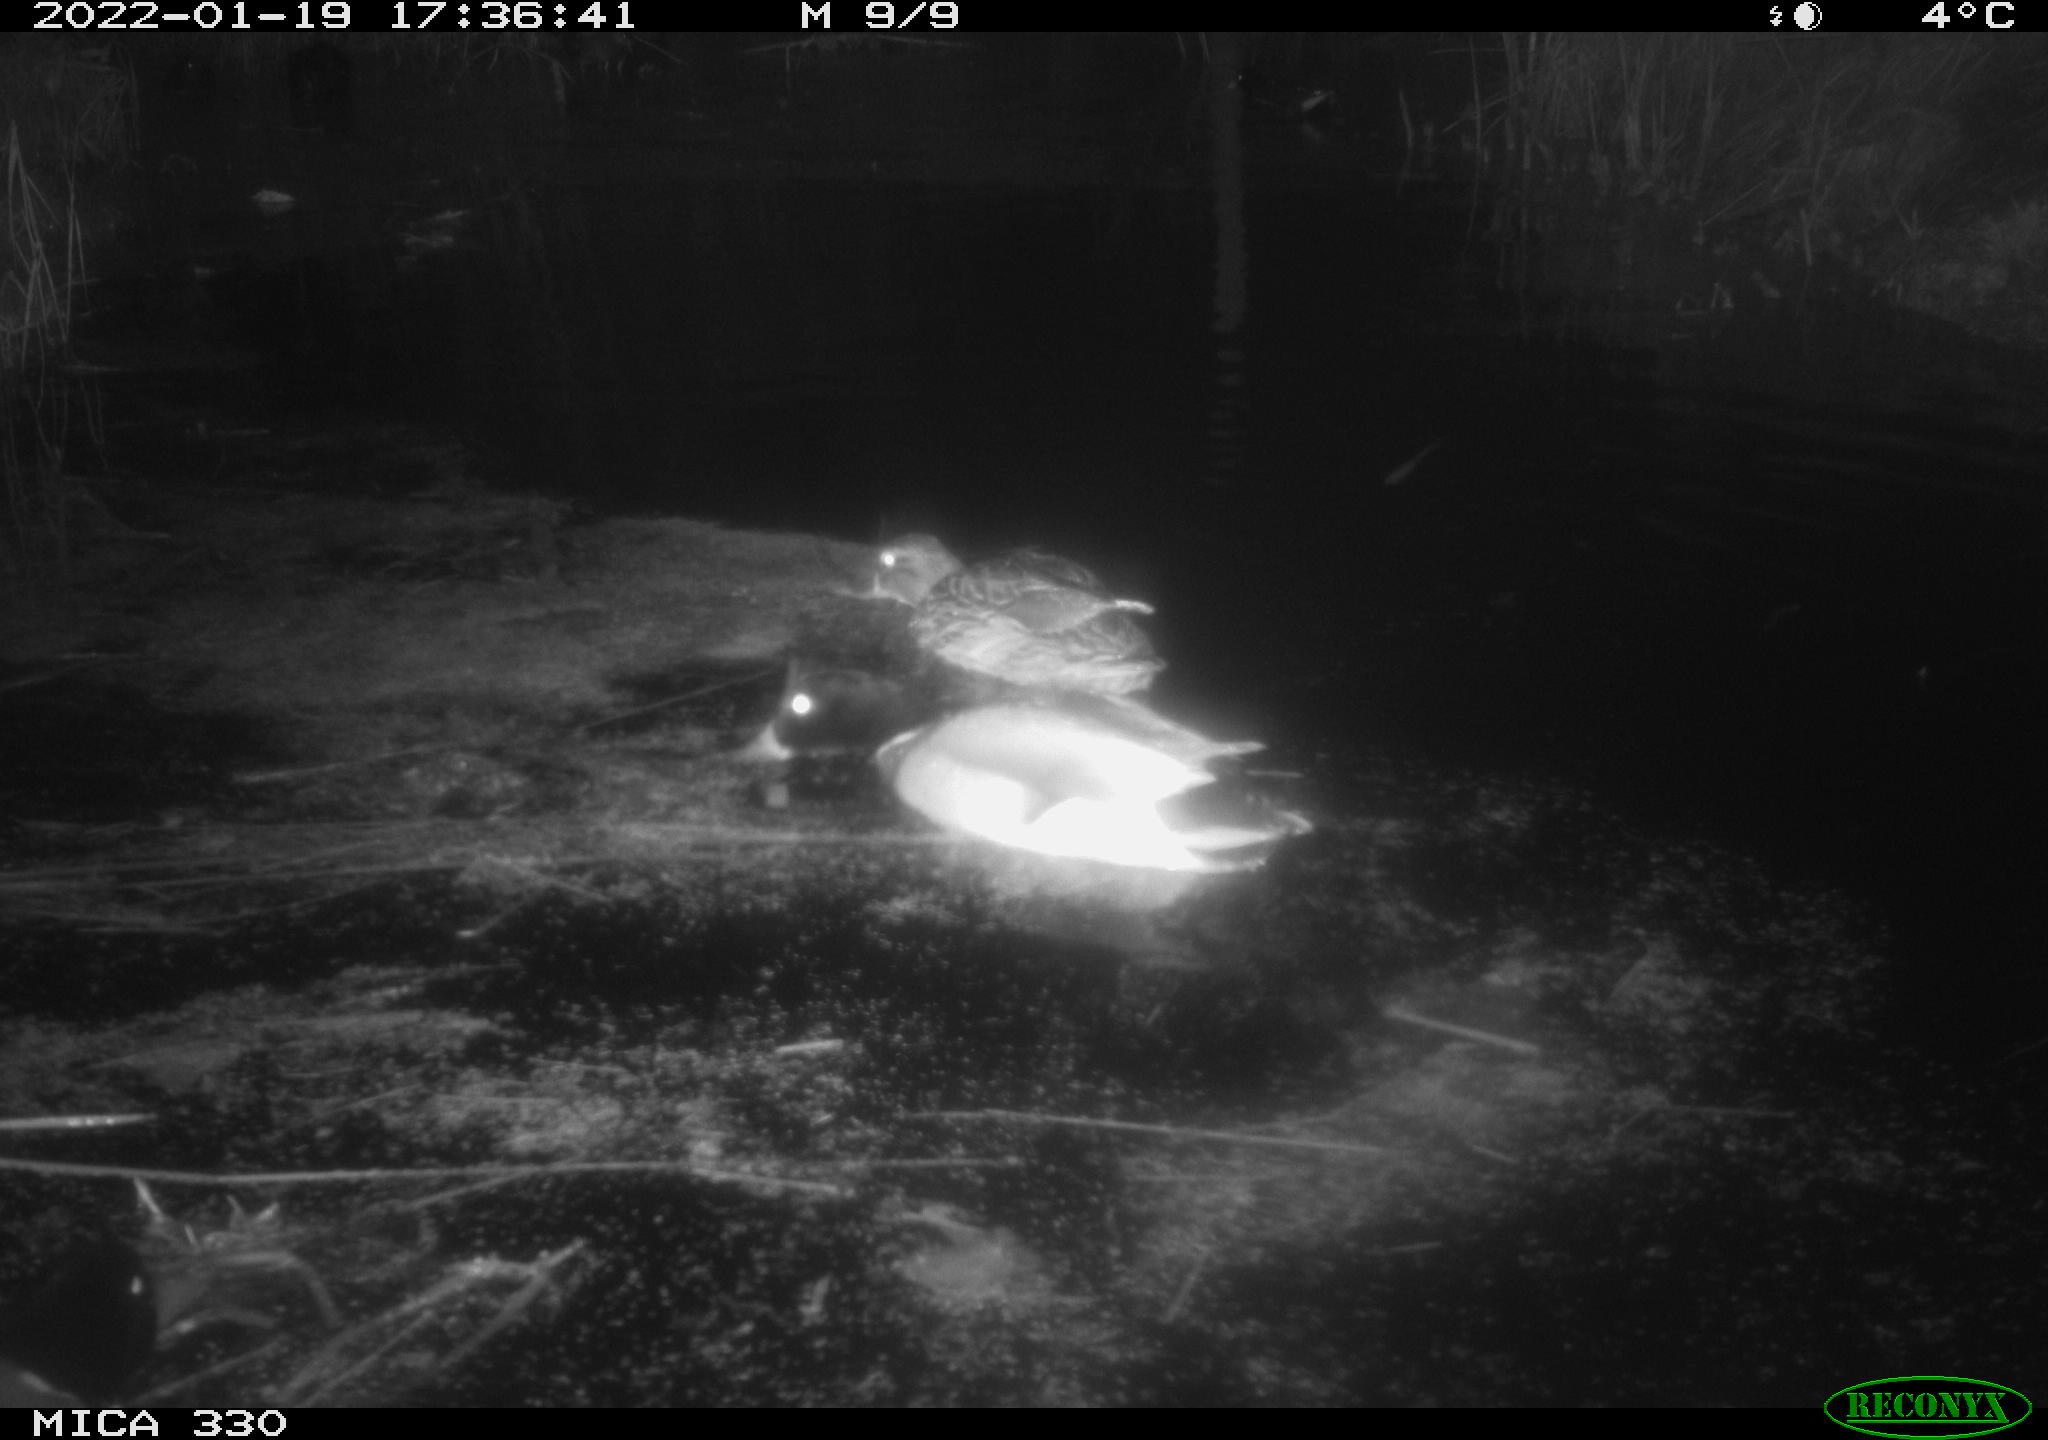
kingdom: Animalia
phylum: Chordata
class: Aves
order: Anseriformes
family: Anatidae
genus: Anas
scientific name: Anas platyrhynchos
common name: Mallard
